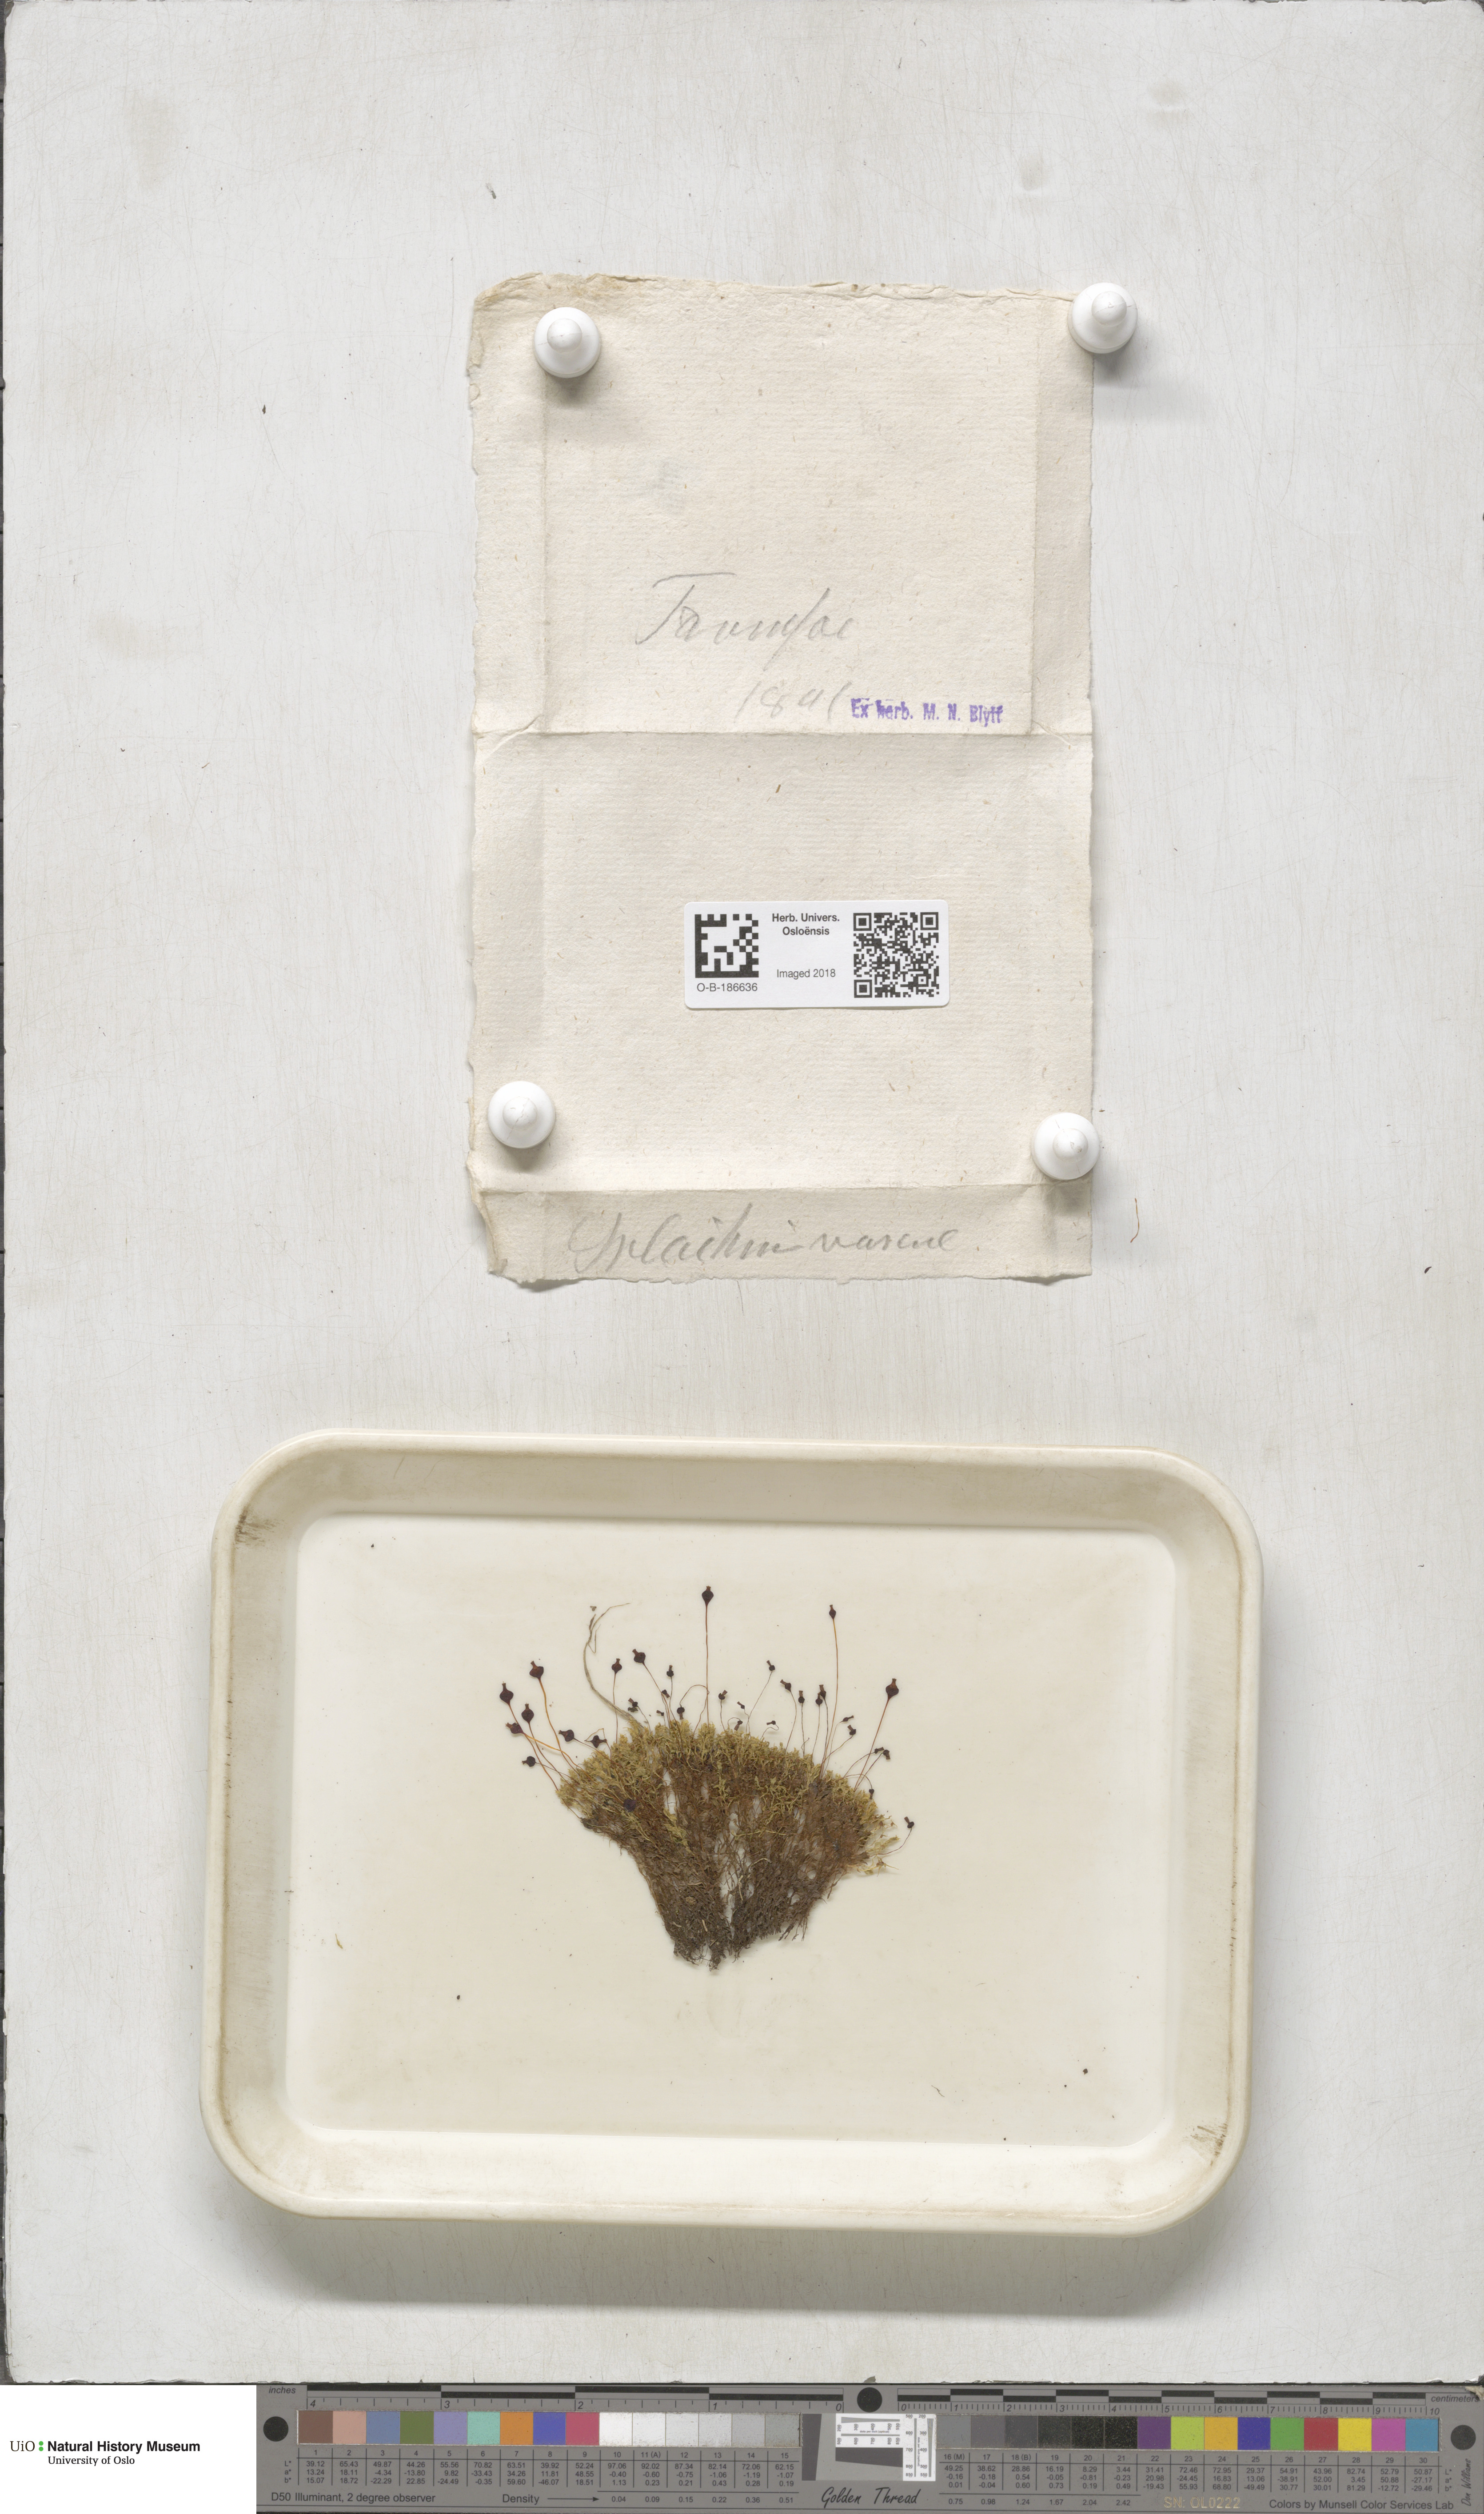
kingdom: Plantae
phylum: Bryophyta
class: Bryopsida
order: Splachnales
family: Splachnaceae
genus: Splachnum
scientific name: Splachnum vasculosum
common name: Rugged dung moss
